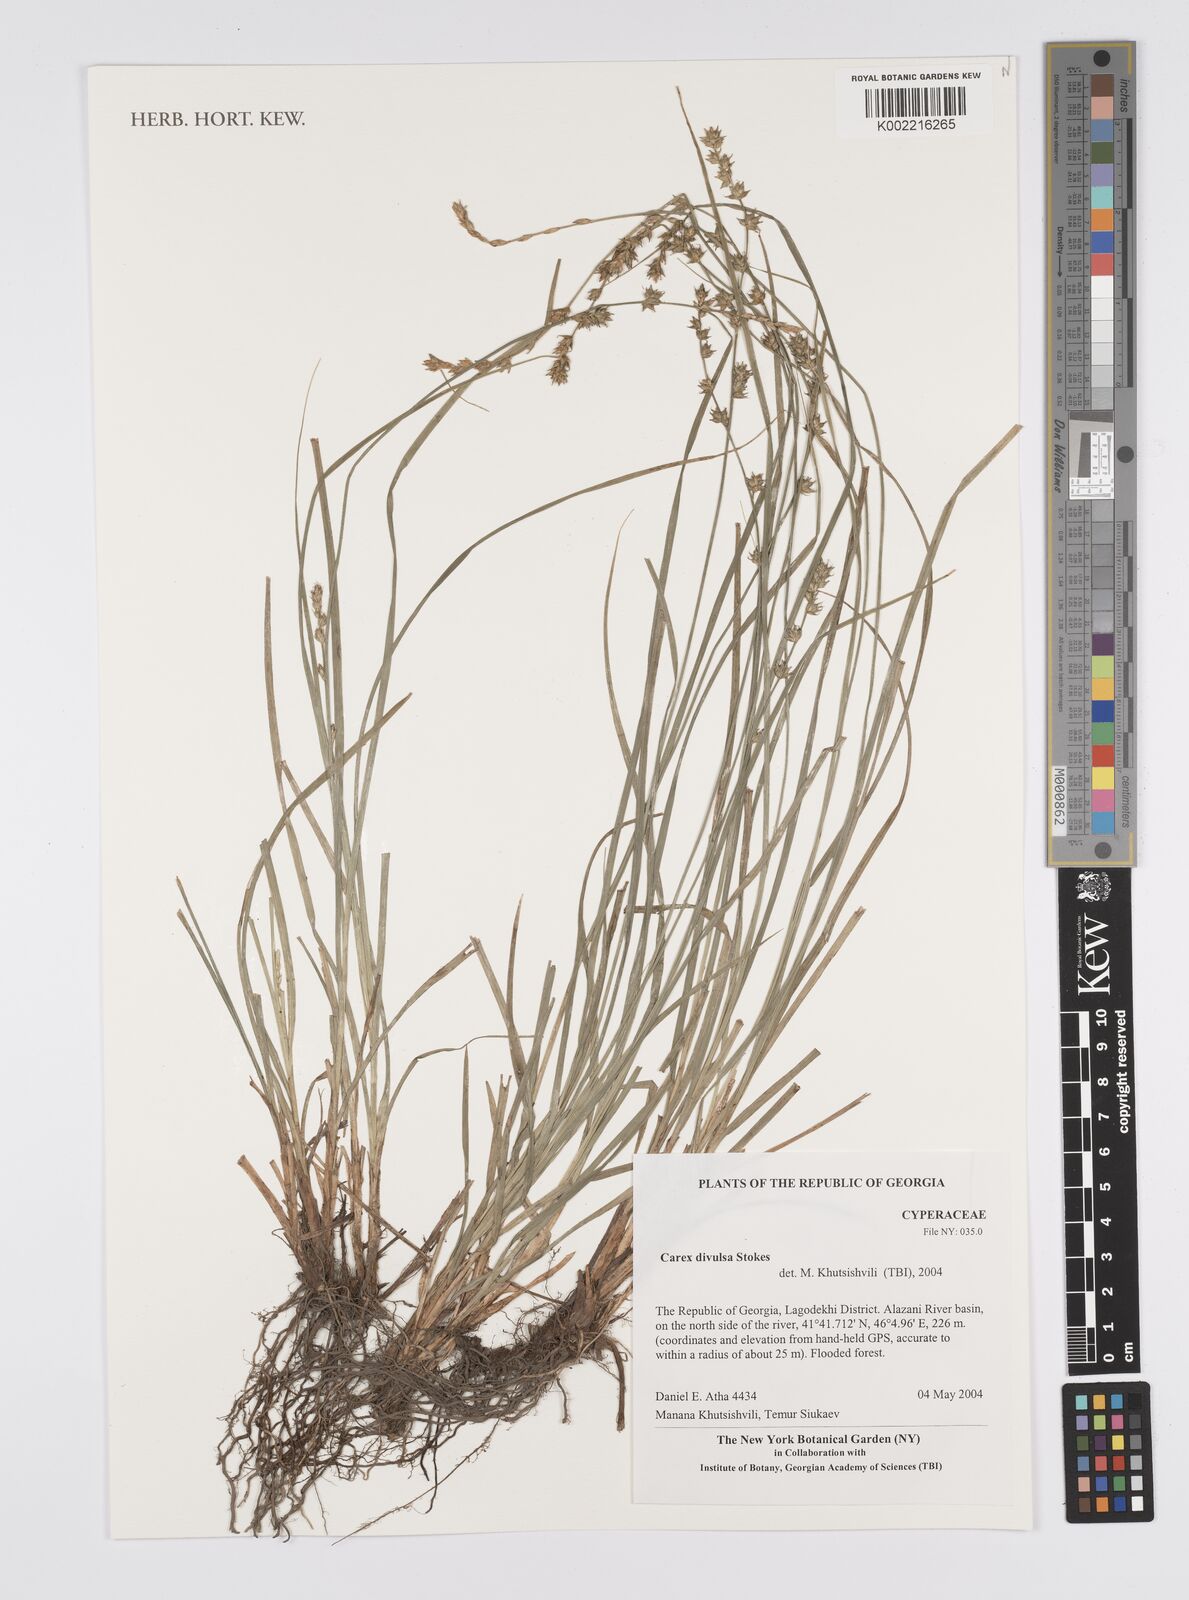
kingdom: Plantae
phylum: Tracheophyta
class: Liliopsida
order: Poales
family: Cyperaceae
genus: Carex
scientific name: Carex divulsa
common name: Grassland sedge
